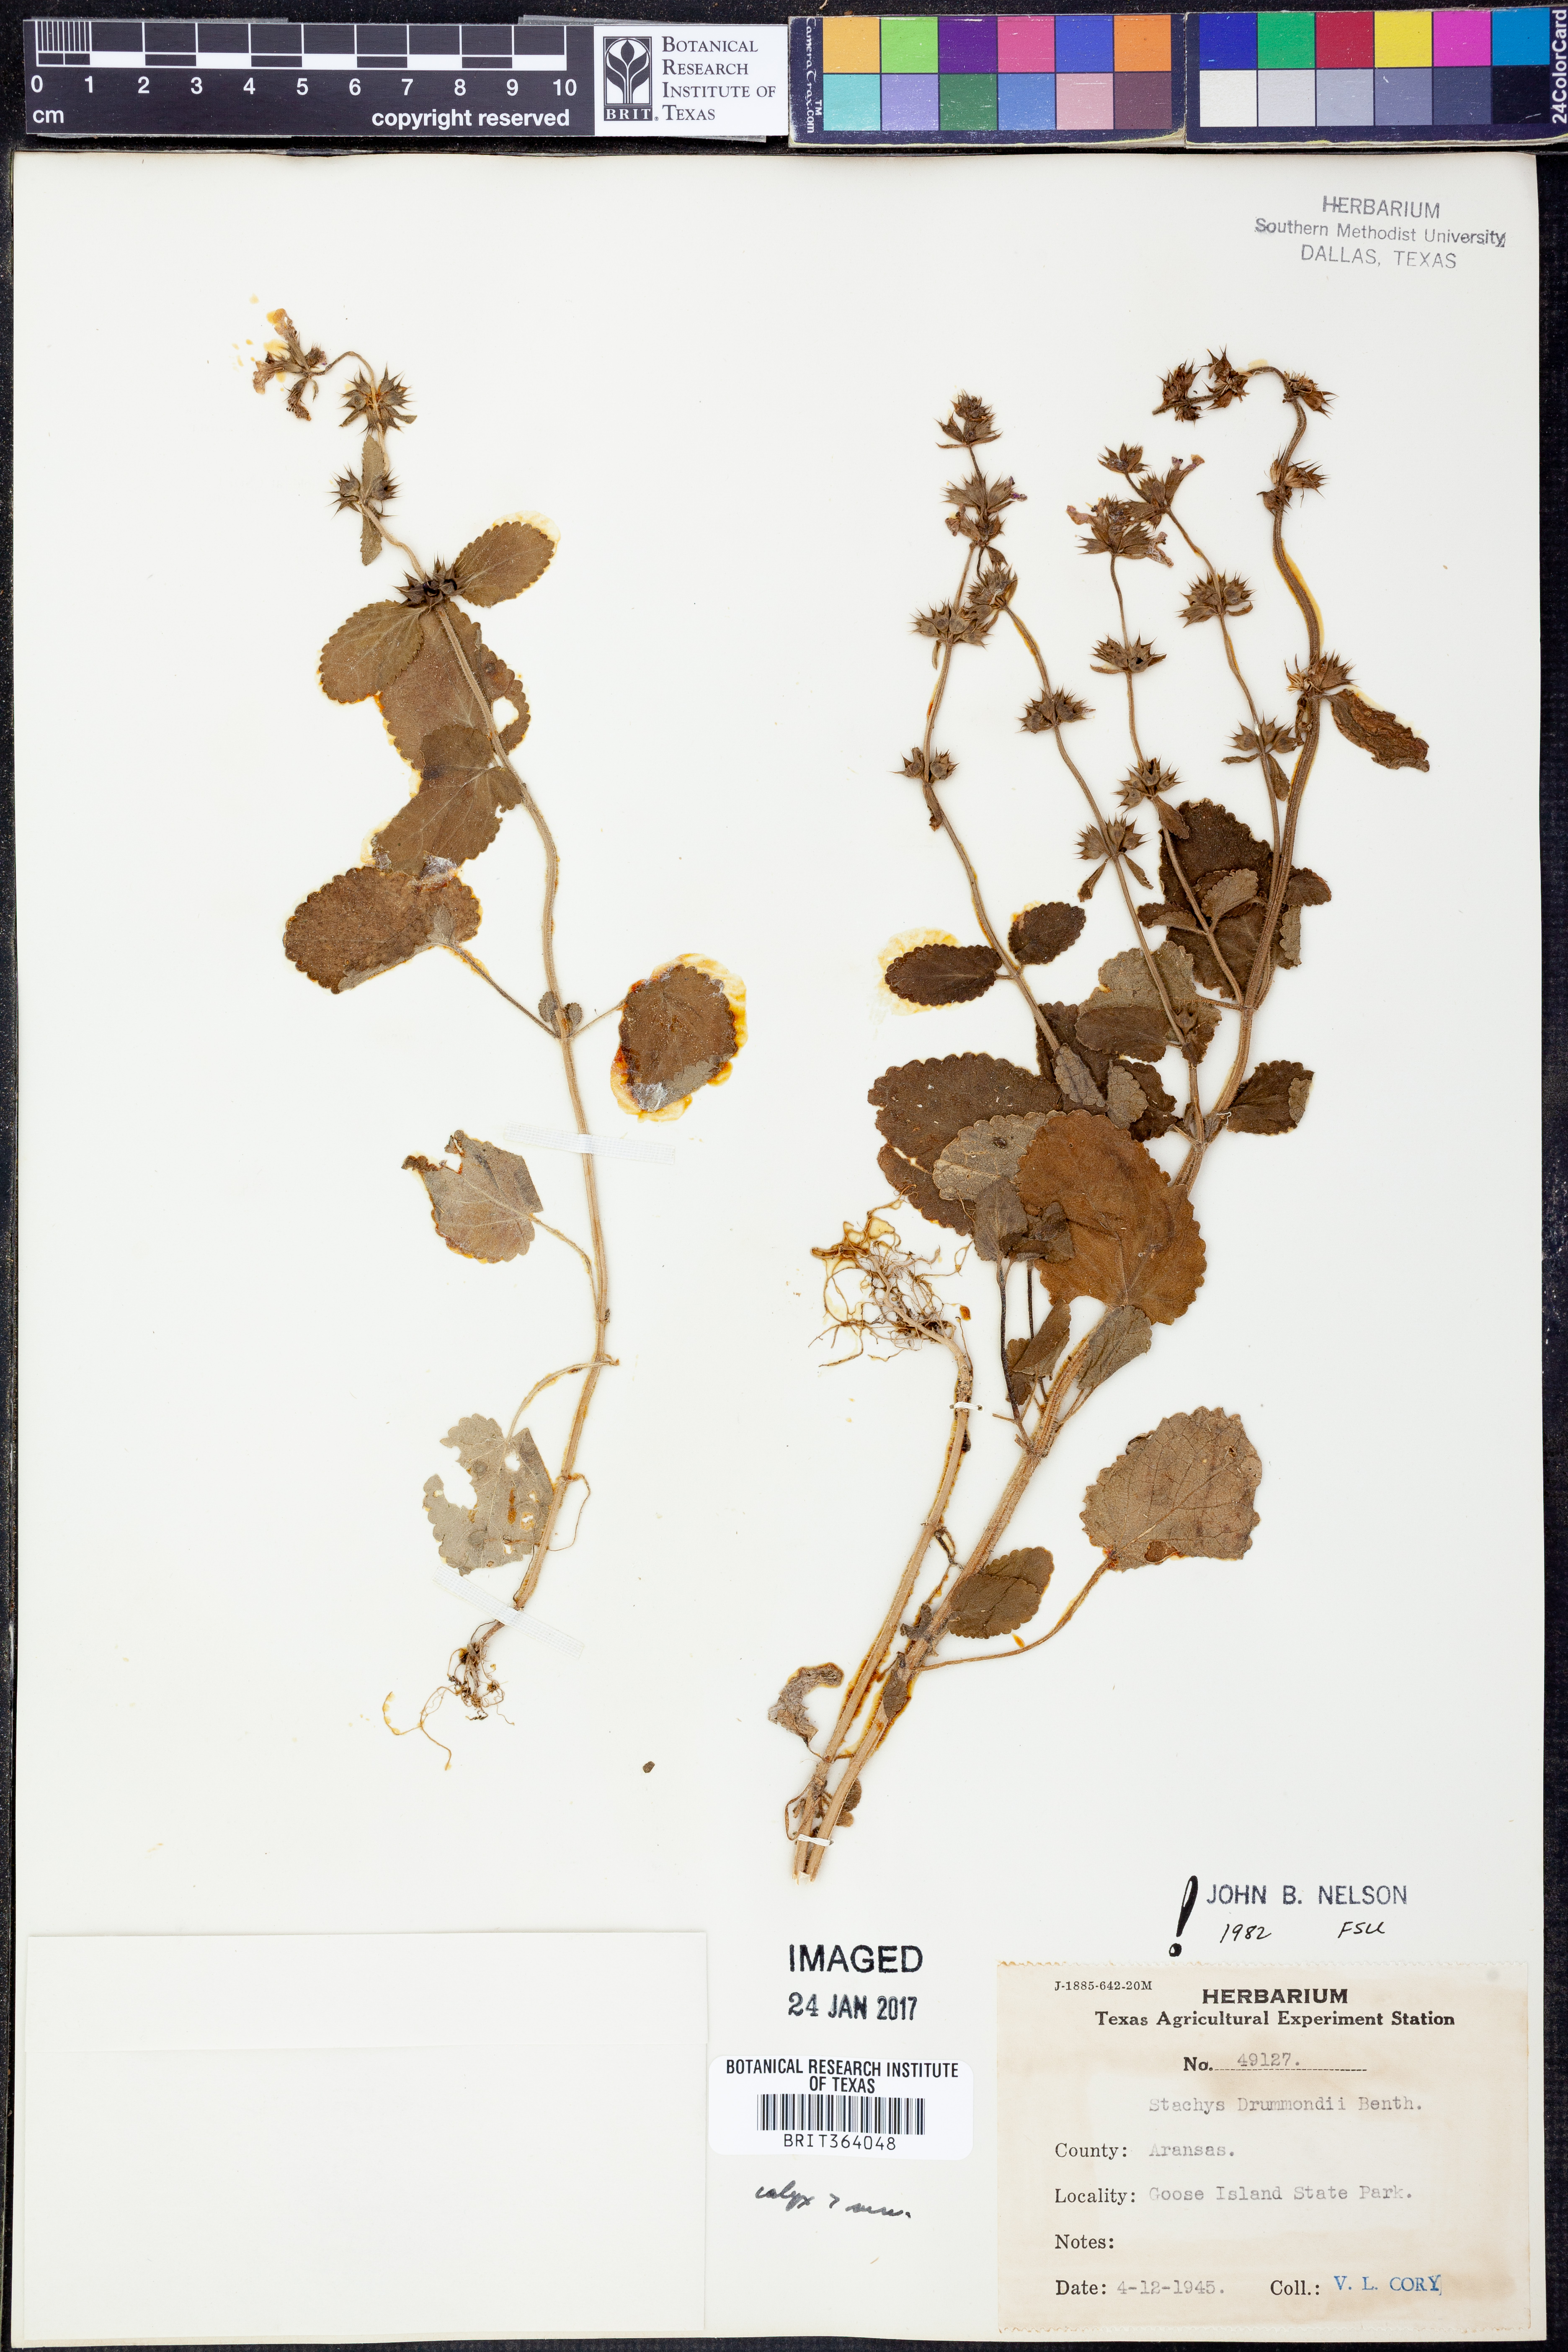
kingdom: Plantae
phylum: Tracheophyta
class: Magnoliopsida
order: Lamiales
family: Lamiaceae
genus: Stachys
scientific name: Stachys drummondii
